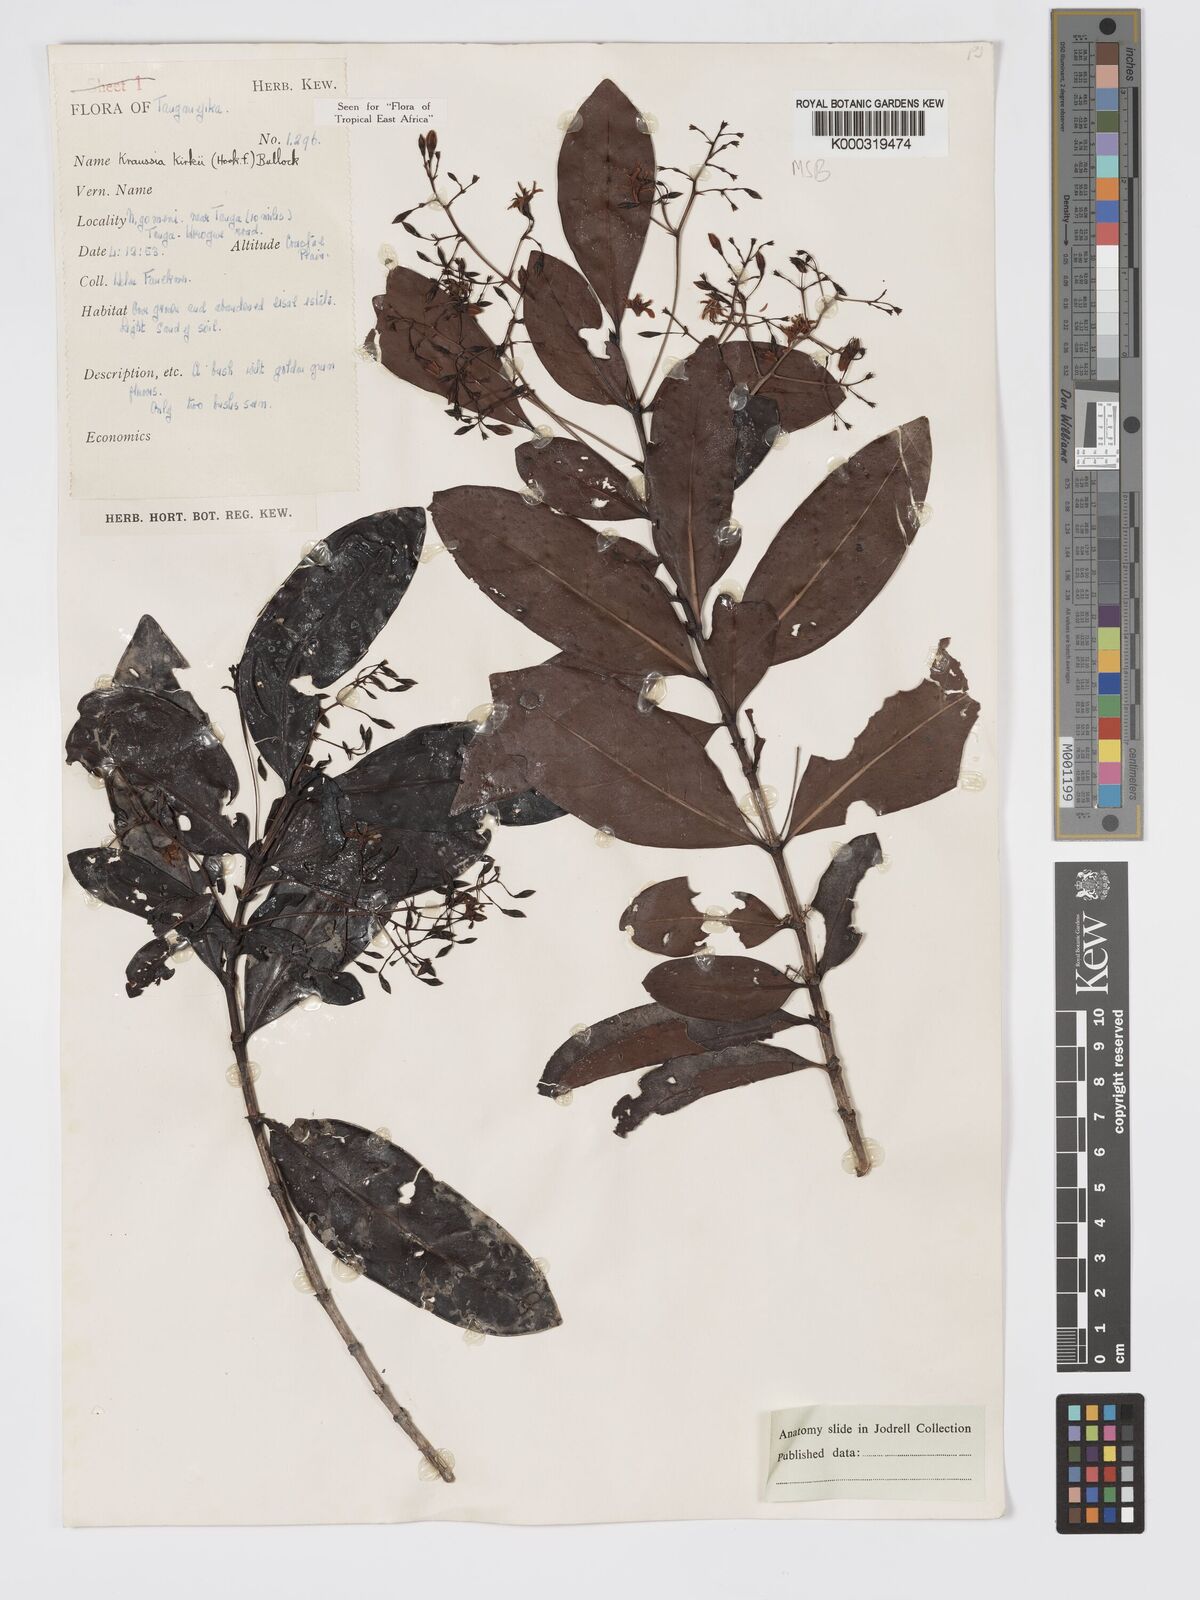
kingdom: Plantae
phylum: Tracheophyta
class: Magnoliopsida
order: Gentianales
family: Rubiaceae
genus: Kraussia
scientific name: Kraussia kirkii
